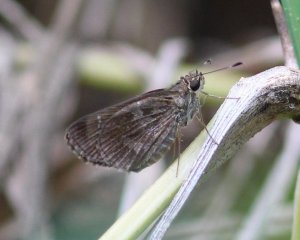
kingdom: Animalia
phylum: Arthropoda
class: Insecta
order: Lepidoptera
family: Hesperiidae
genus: Cymaenes
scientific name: Cymaenes odilia
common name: Fawn-spotted Skipper
